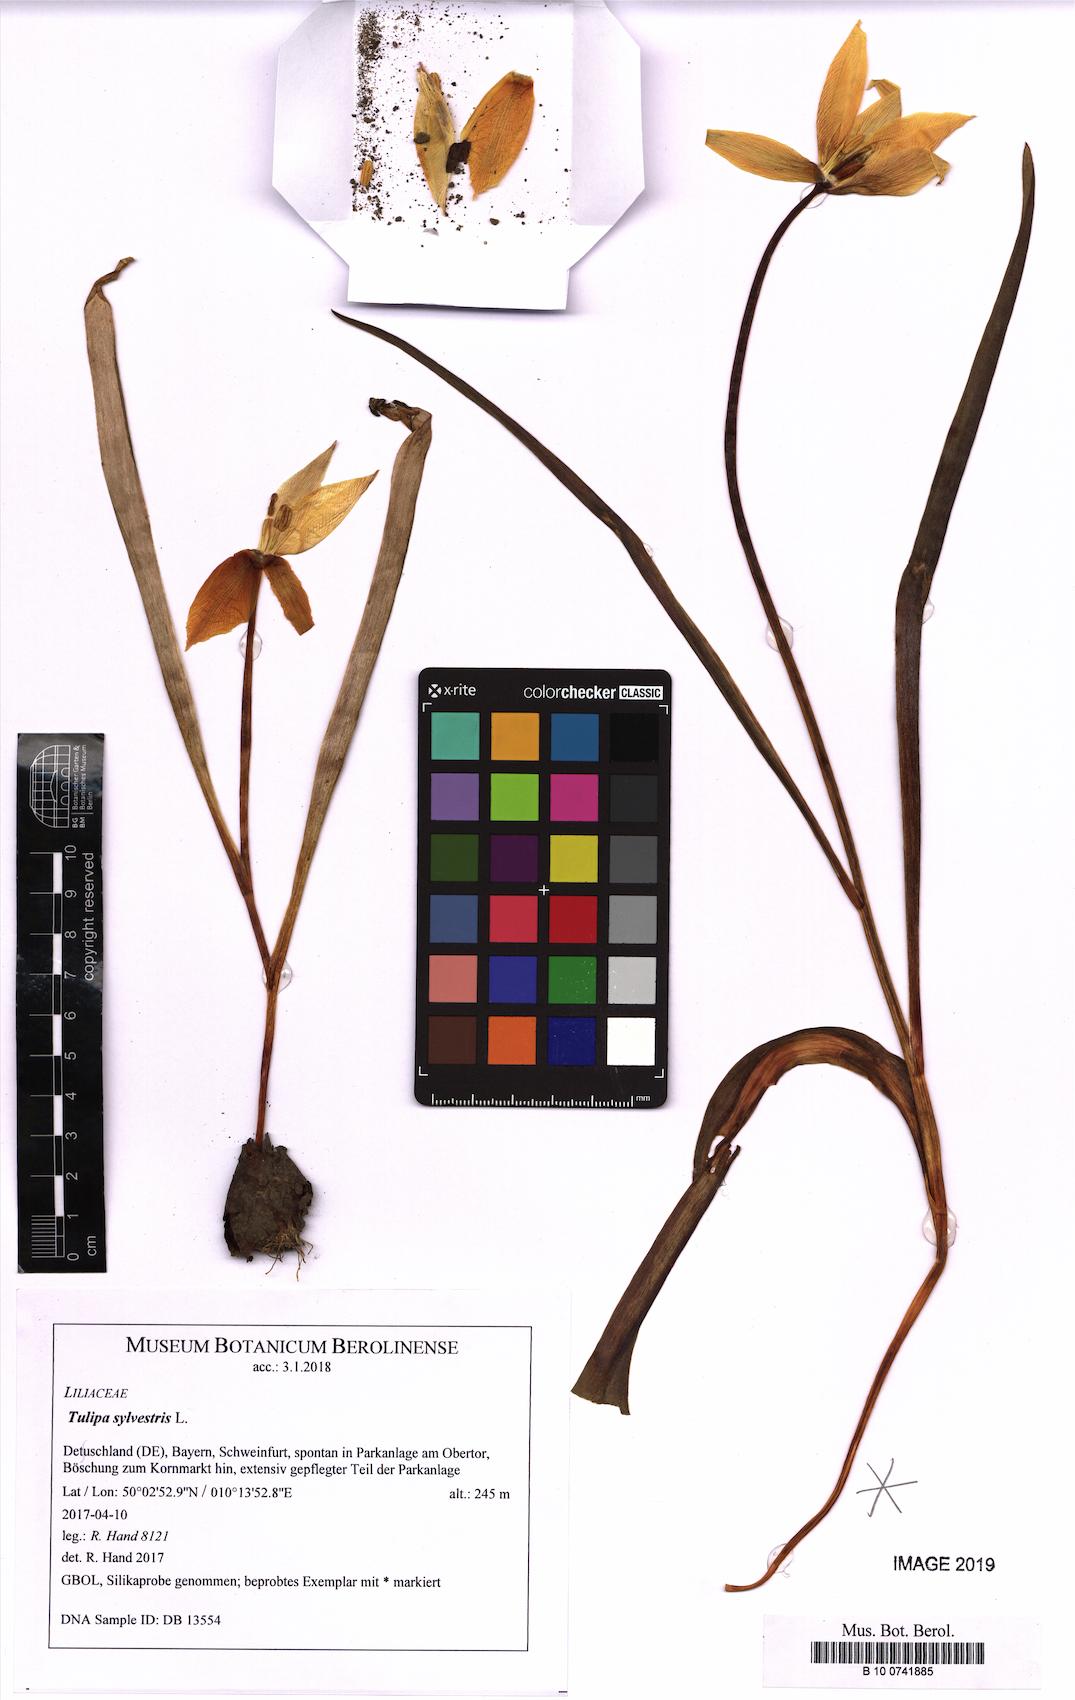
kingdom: Plantae
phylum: Tracheophyta
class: Liliopsida
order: Liliales
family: Liliaceae
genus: Tulipa
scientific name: Tulipa sylvestris
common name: Wild tulip
